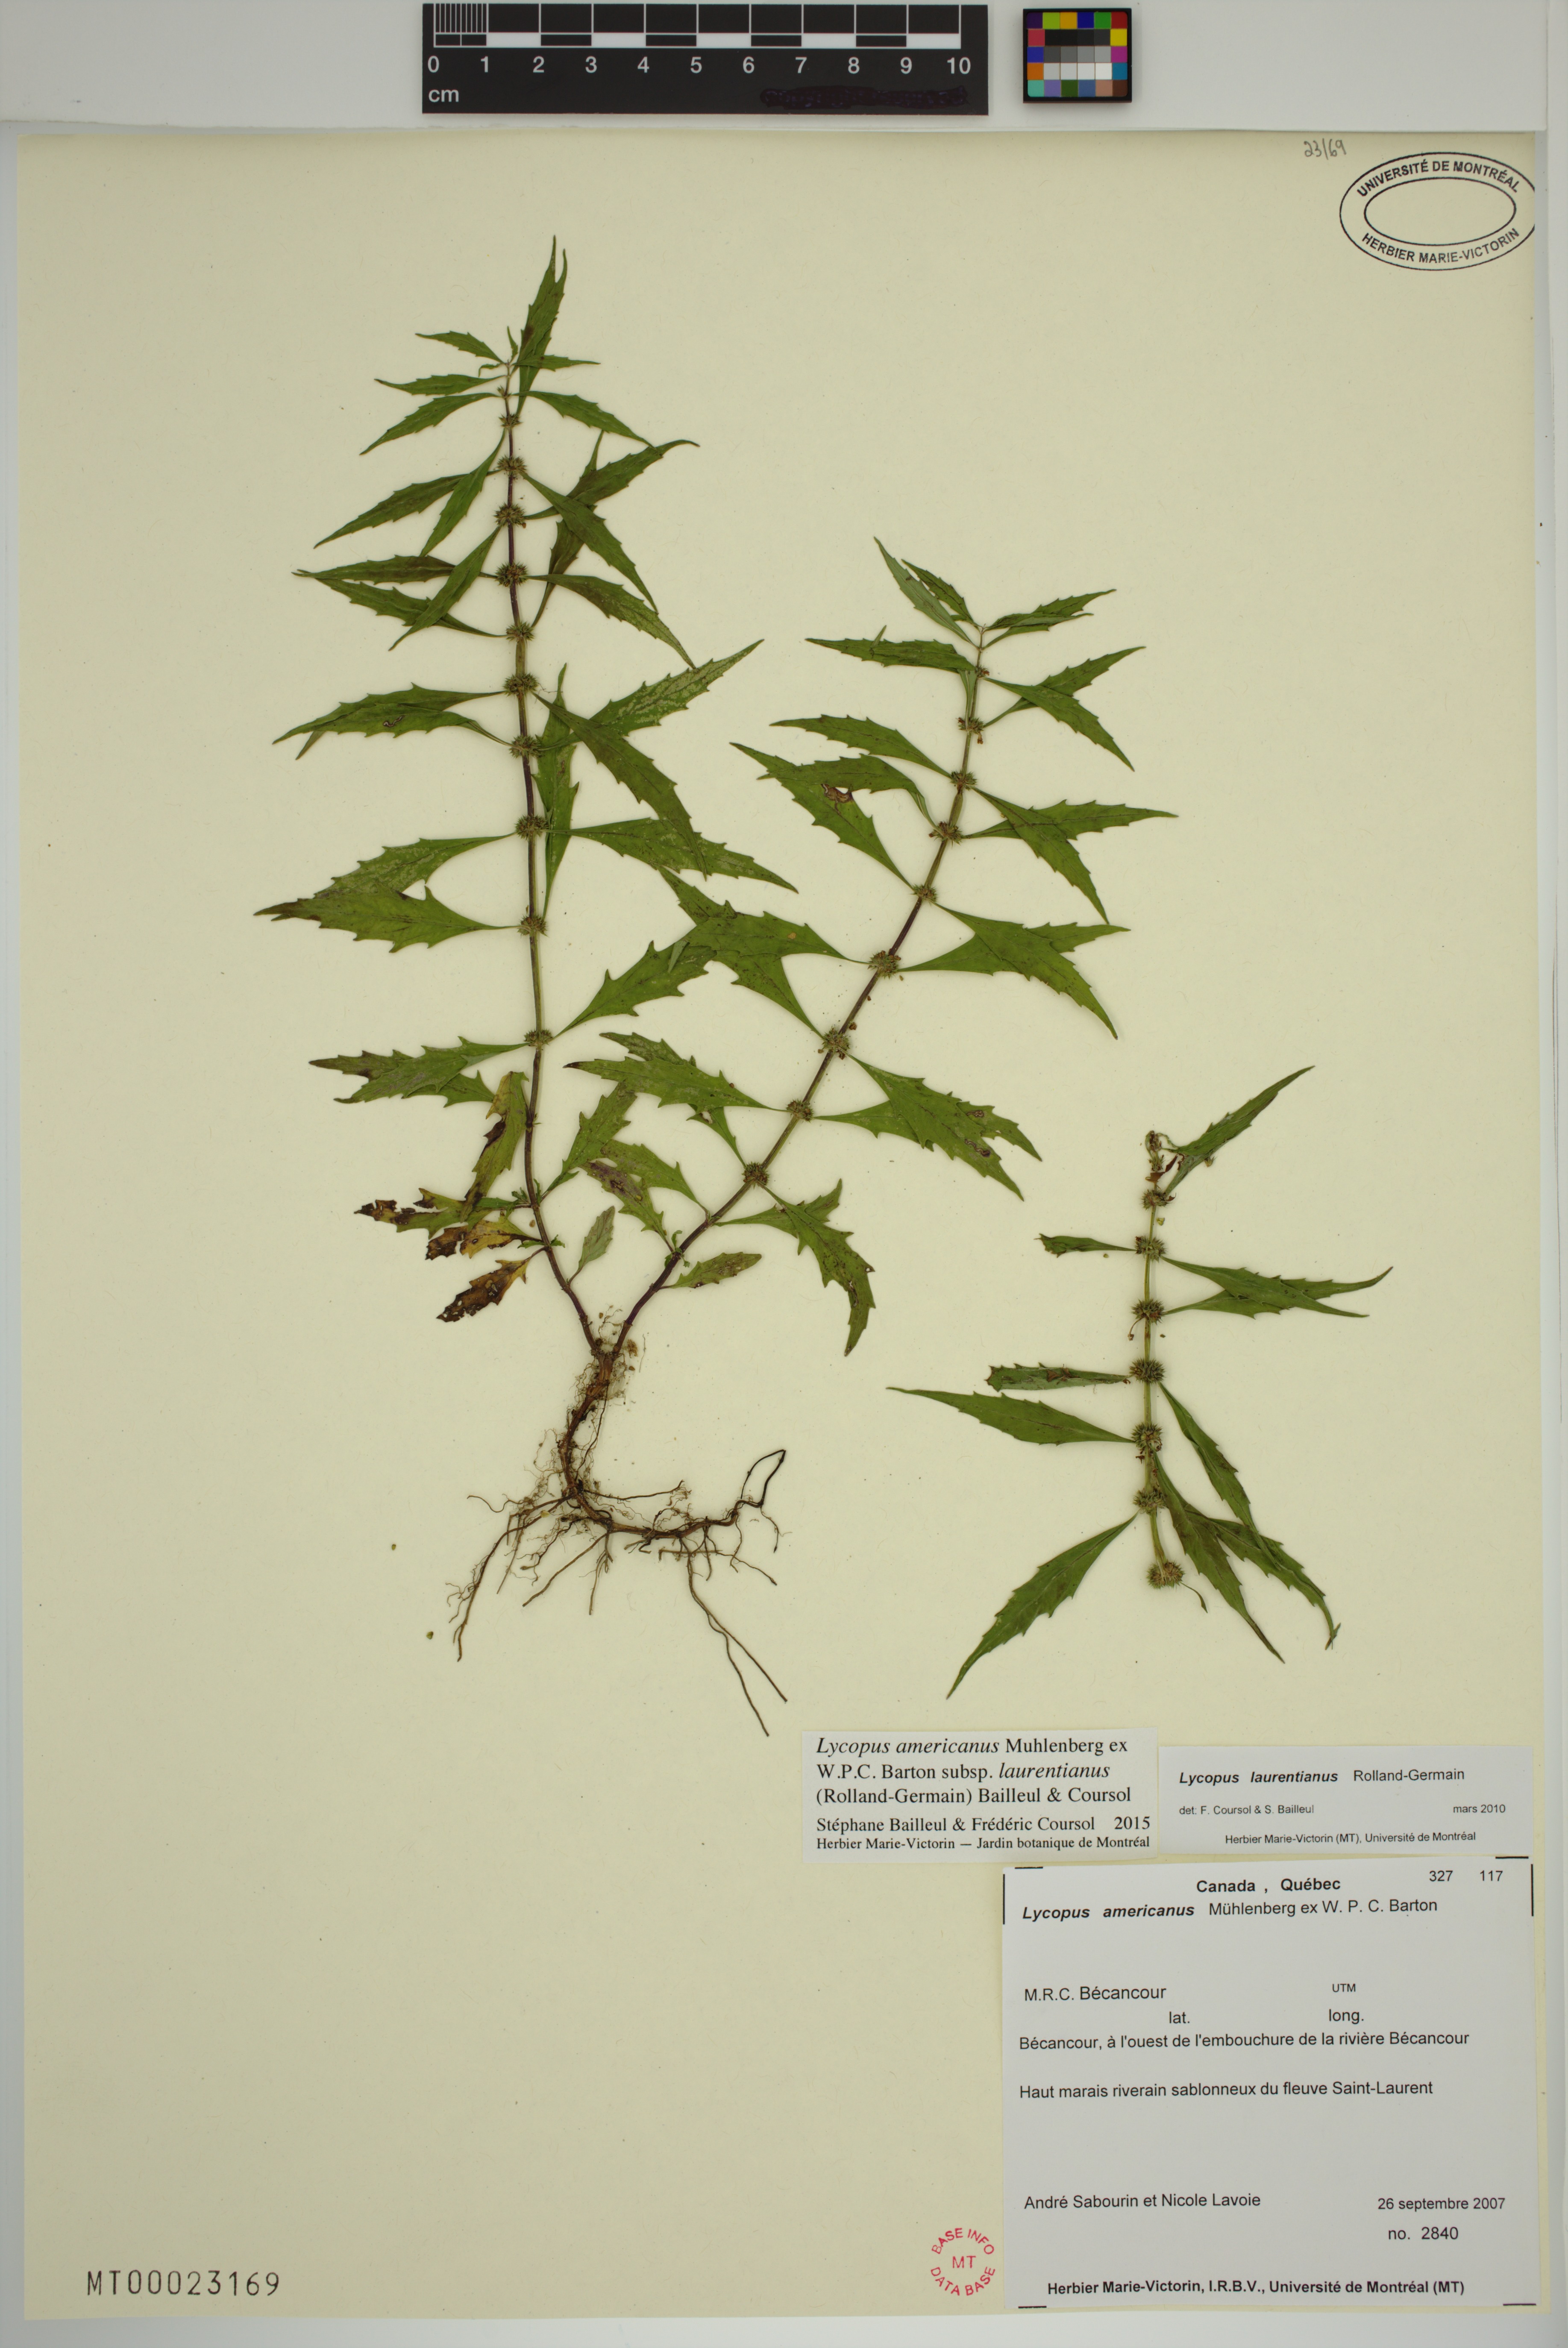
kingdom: Plantae
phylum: Tracheophyta
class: Magnoliopsida
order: Lamiales
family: Lamiaceae
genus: Lycopus
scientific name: Lycopus americanus
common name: American bugleweed
